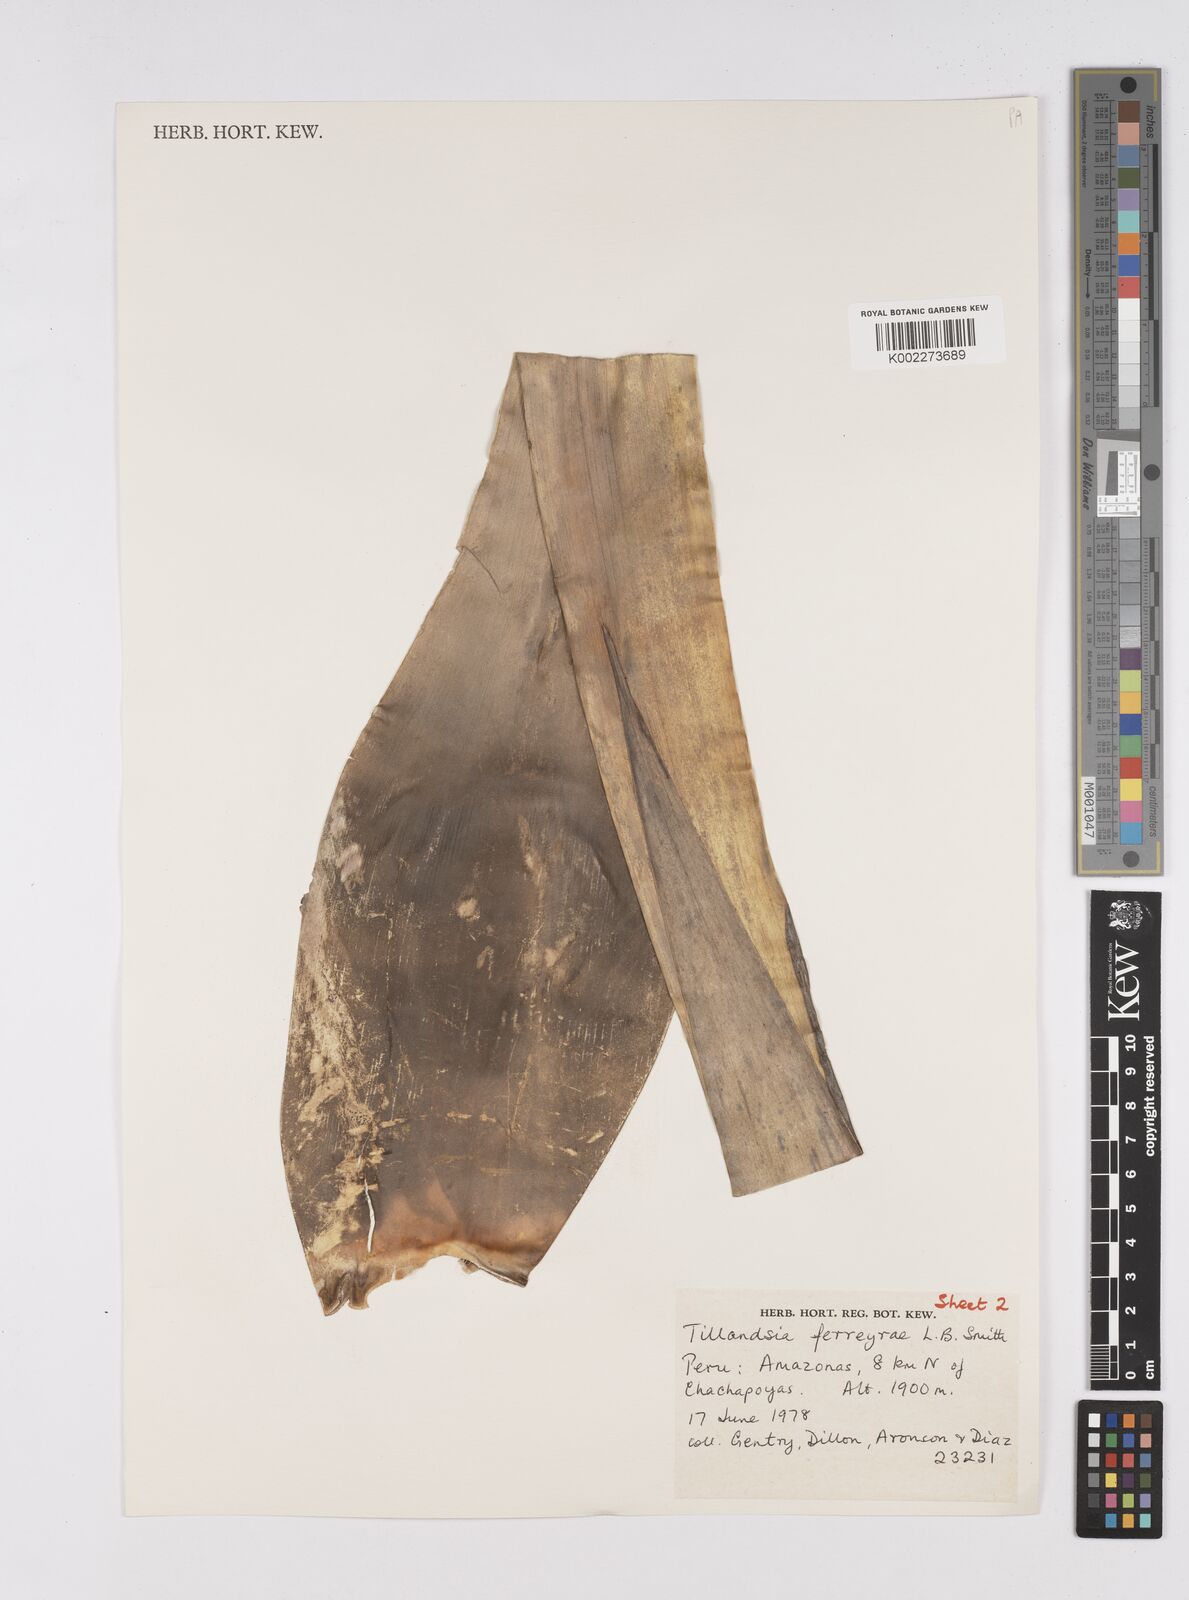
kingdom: Plantae
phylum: Tracheophyta
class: Liliopsida
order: Poales
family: Bromeliaceae
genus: Tillandsia
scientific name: Tillandsia ferreyrae
